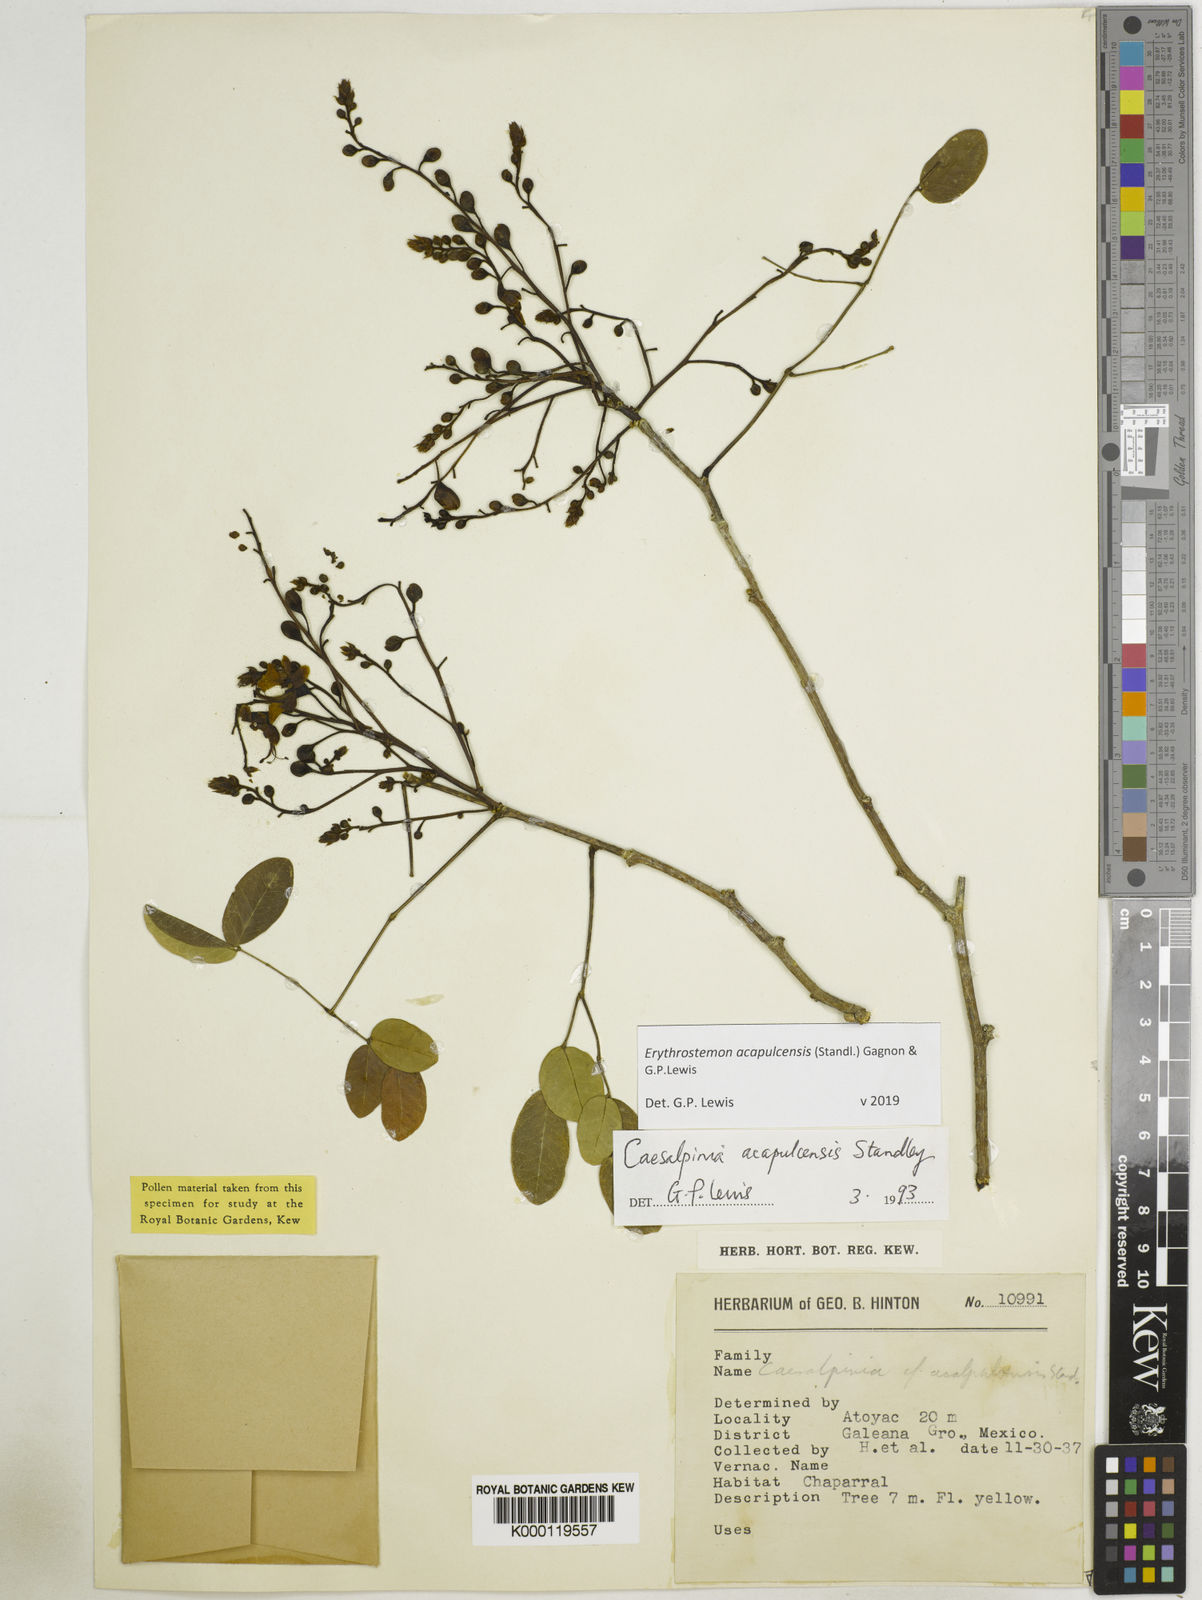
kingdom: Plantae
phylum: Tracheophyta
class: Magnoliopsida
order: Fabales
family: Fabaceae
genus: Erythrostemon
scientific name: Erythrostemon acapulcensis
